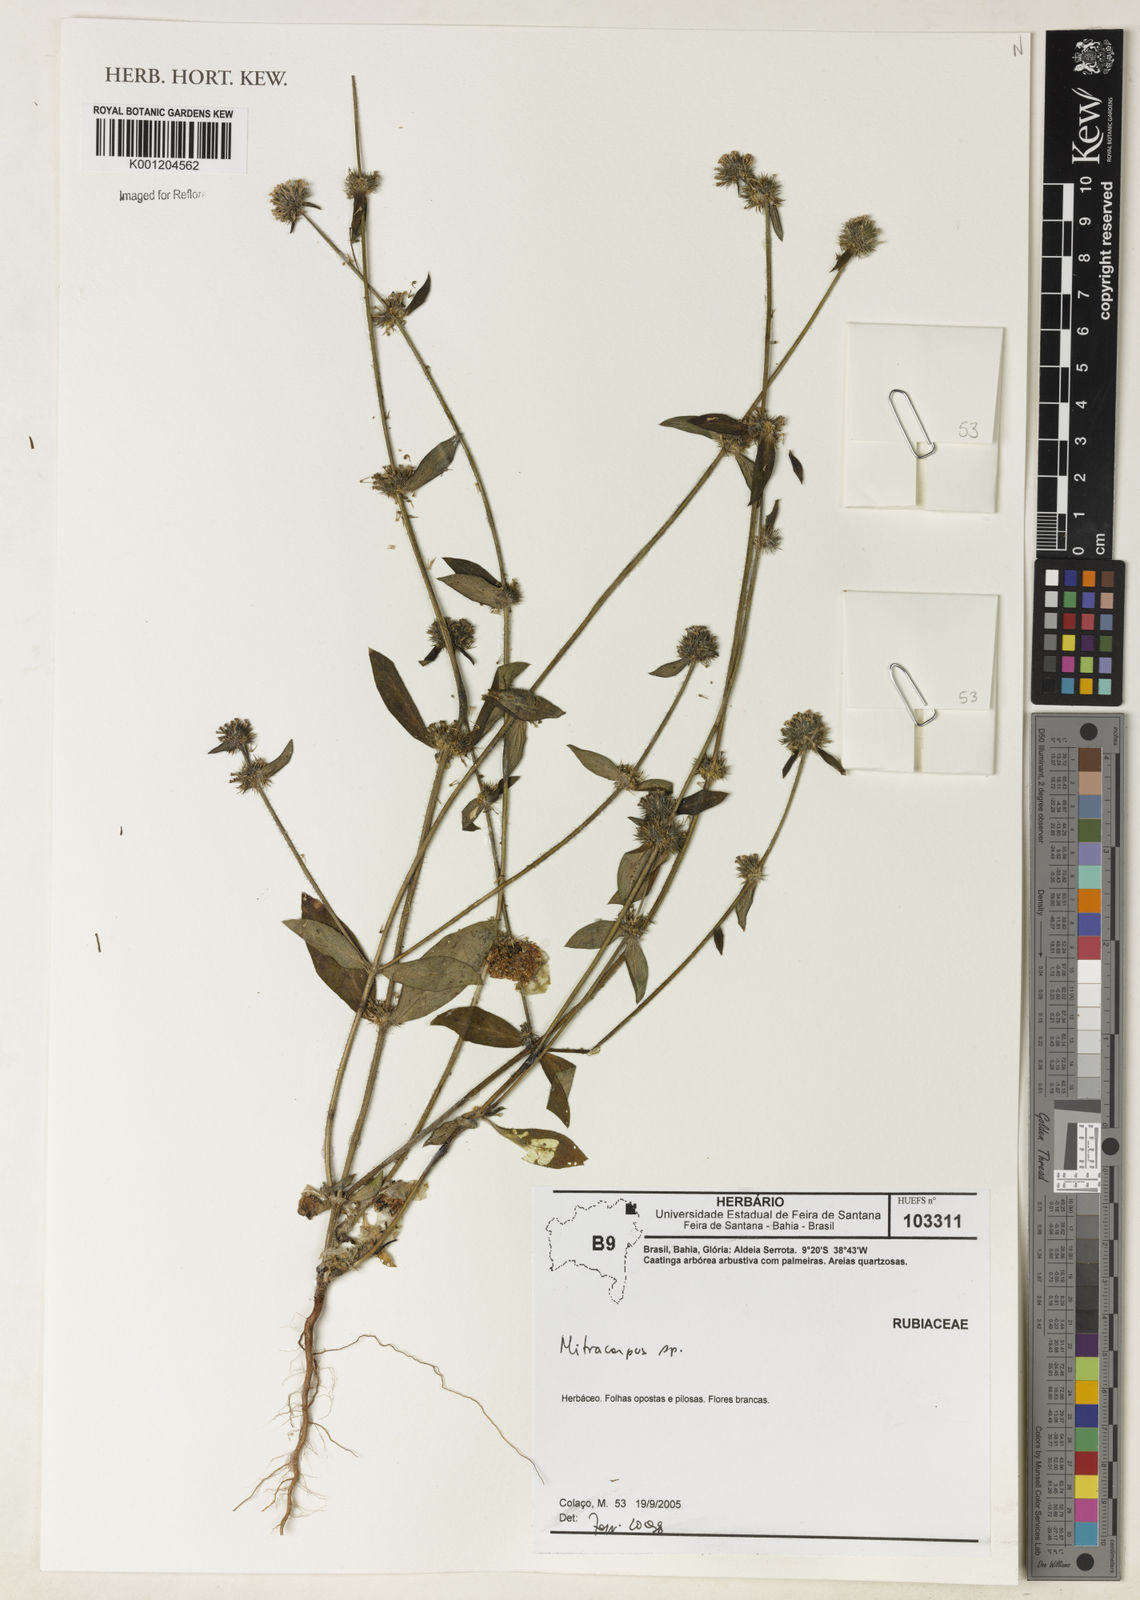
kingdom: Plantae
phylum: Tracheophyta
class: Magnoliopsida
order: Gentianales
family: Rubiaceae
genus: Mitracarpus
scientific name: Mitracarpus
